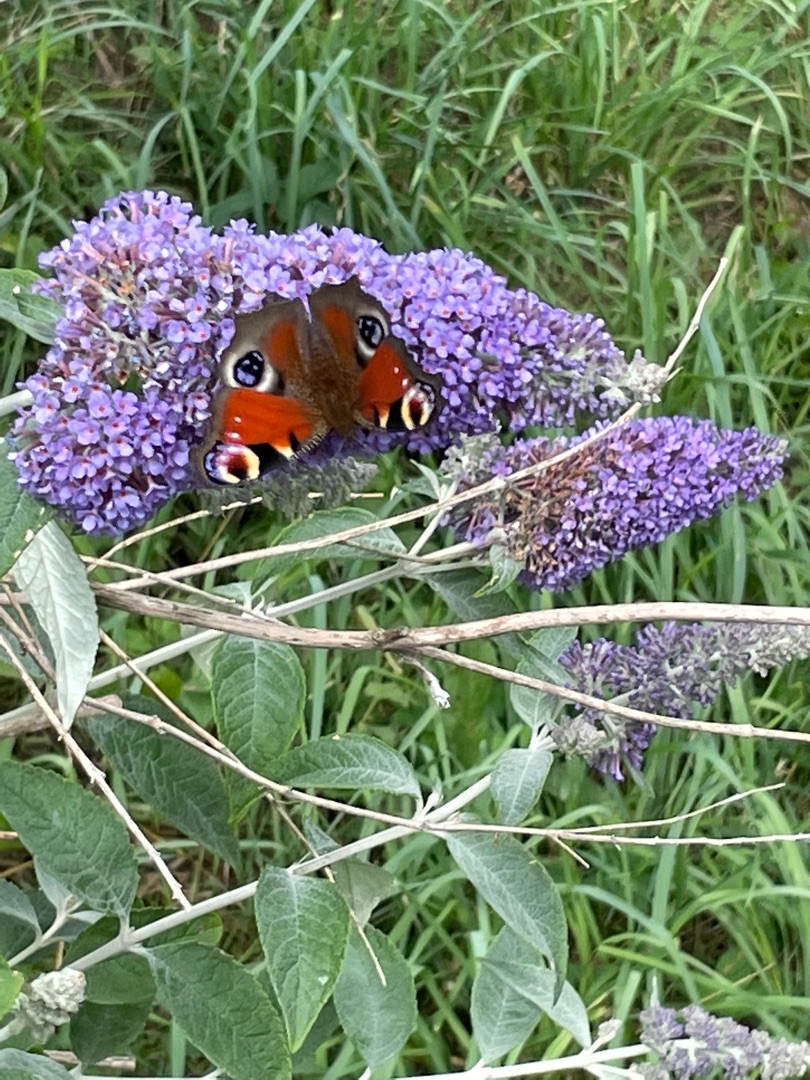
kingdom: Animalia
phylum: Arthropoda
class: Insecta
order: Lepidoptera
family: Nymphalidae
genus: Aglais
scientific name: Aglais io
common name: Dagpåfugleøje
